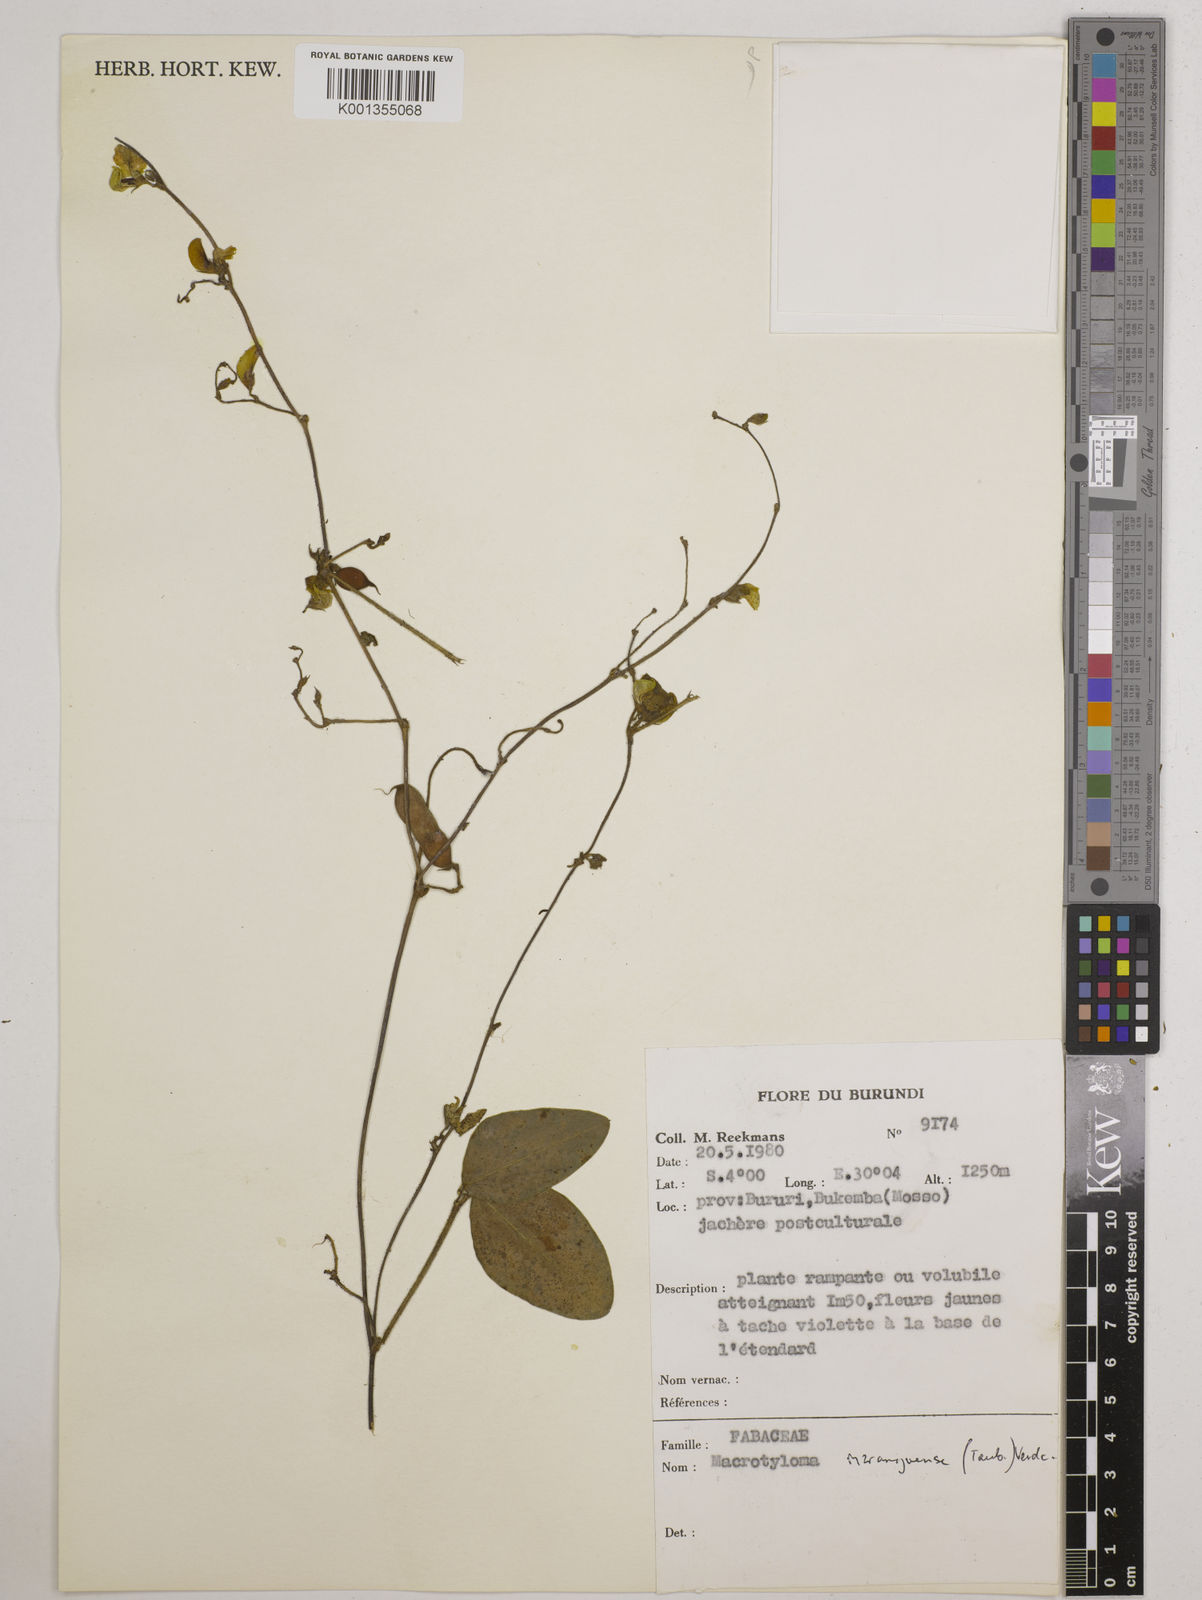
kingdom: Plantae
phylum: Tracheophyta
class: Magnoliopsida
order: Fabales
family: Fabaceae
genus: Macrotyloma
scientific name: Macrotyloma maranguense
